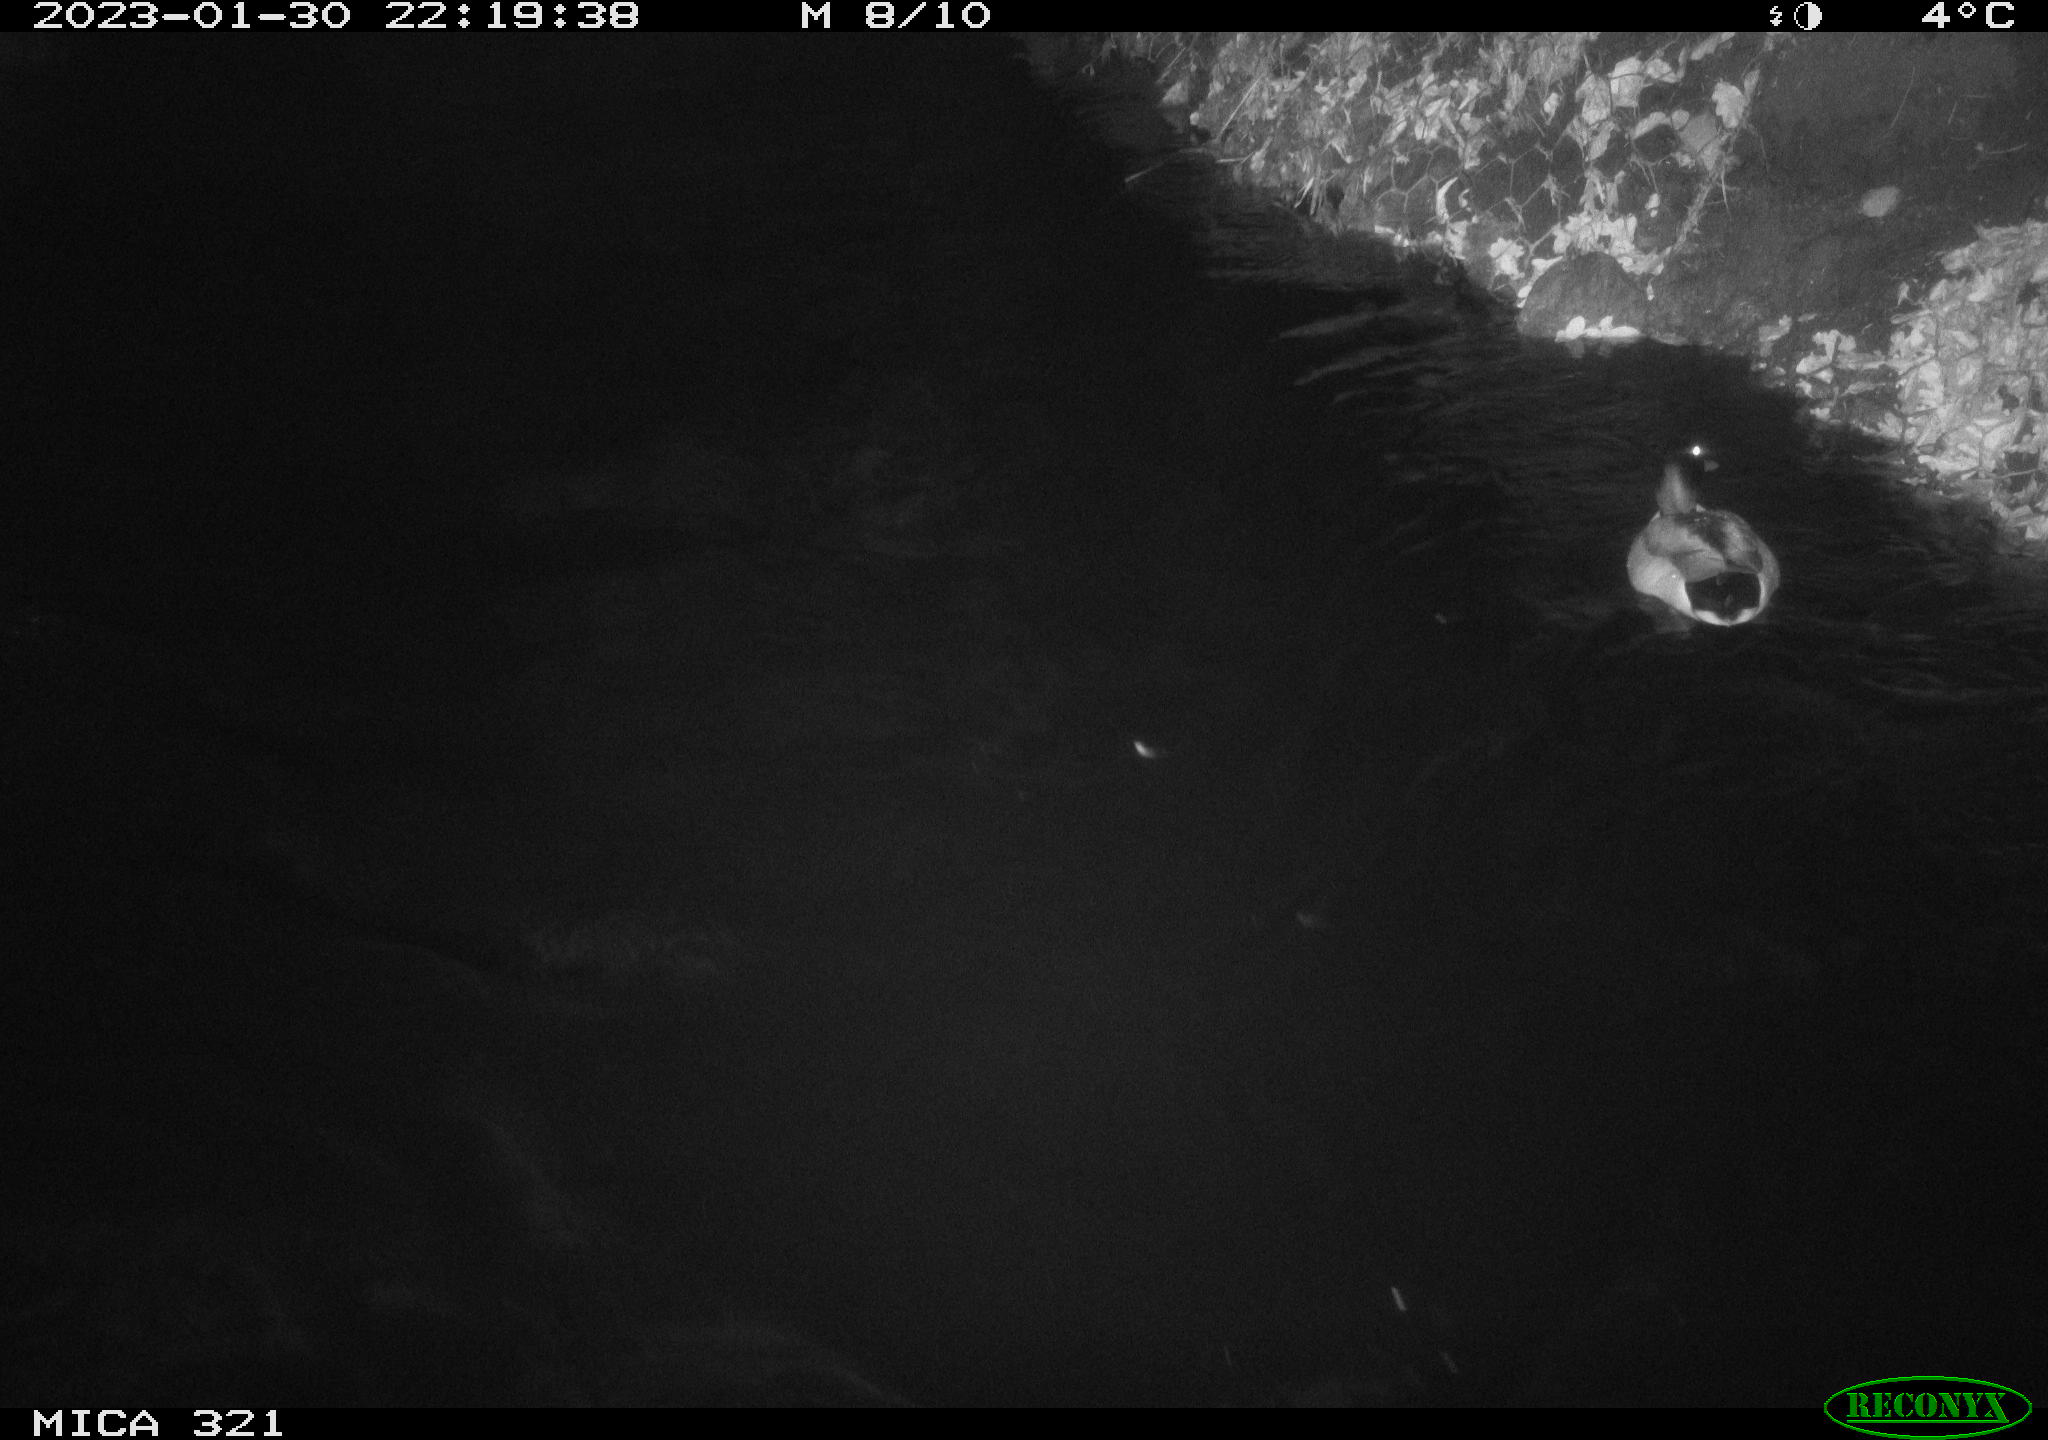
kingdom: Animalia
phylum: Chordata
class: Aves
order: Anseriformes
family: Anatidae
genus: Anas
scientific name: Anas
